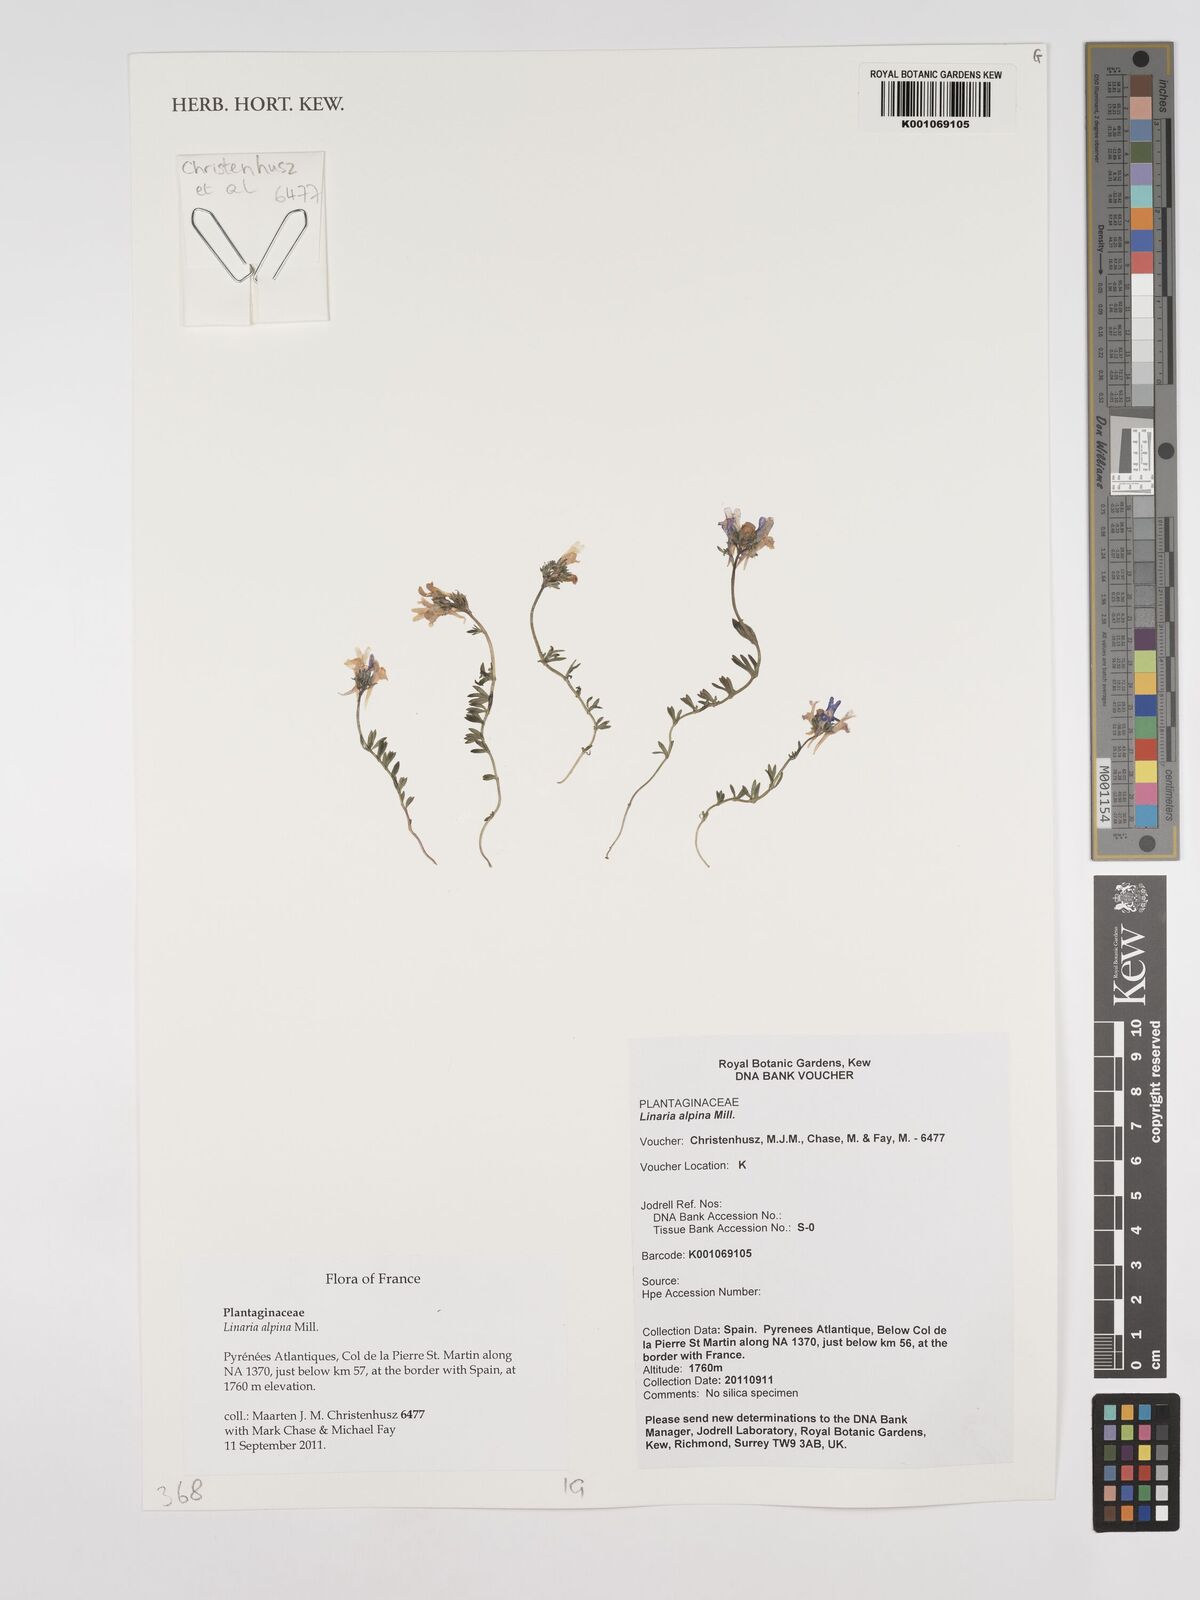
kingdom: Plantae
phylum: Tracheophyta
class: Magnoliopsida
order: Lamiales
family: Plantaginaceae
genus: Linaria
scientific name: Linaria alpina
